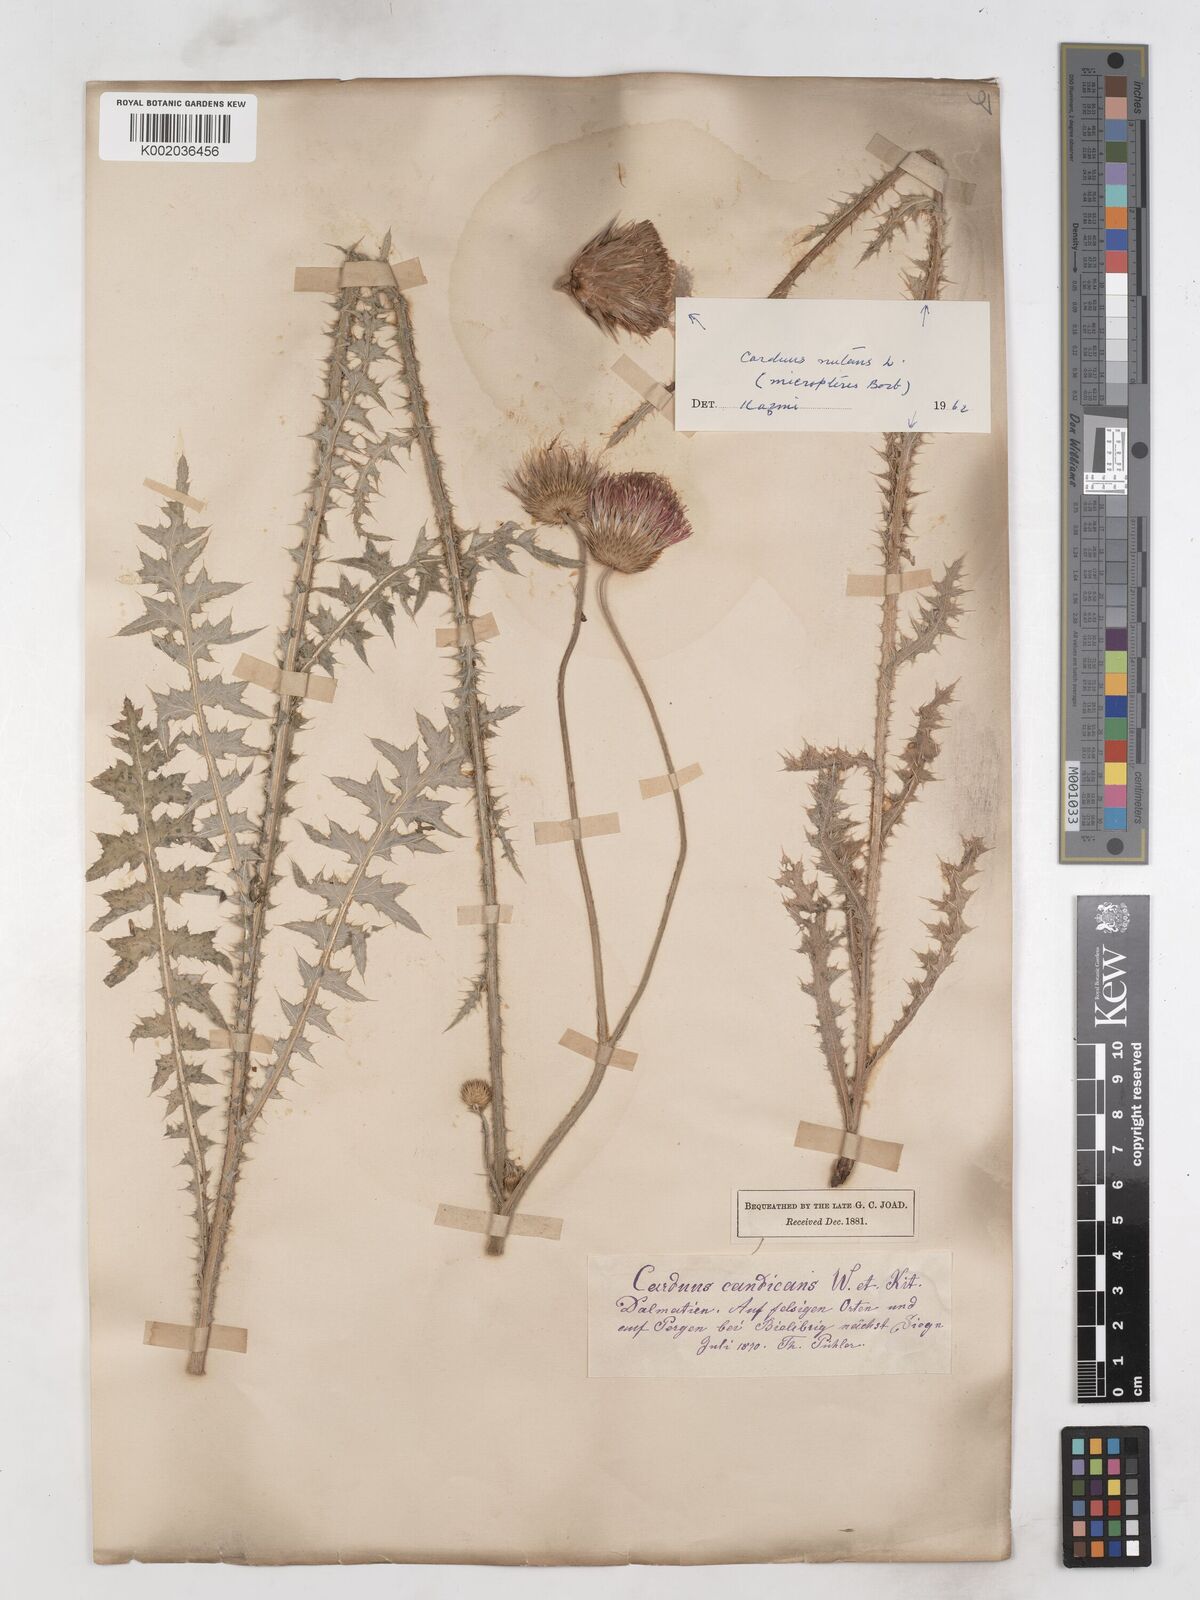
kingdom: Plantae
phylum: Tracheophyta
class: Magnoliopsida
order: Asterales
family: Asteraceae
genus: Carduus
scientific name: Carduus candicans
